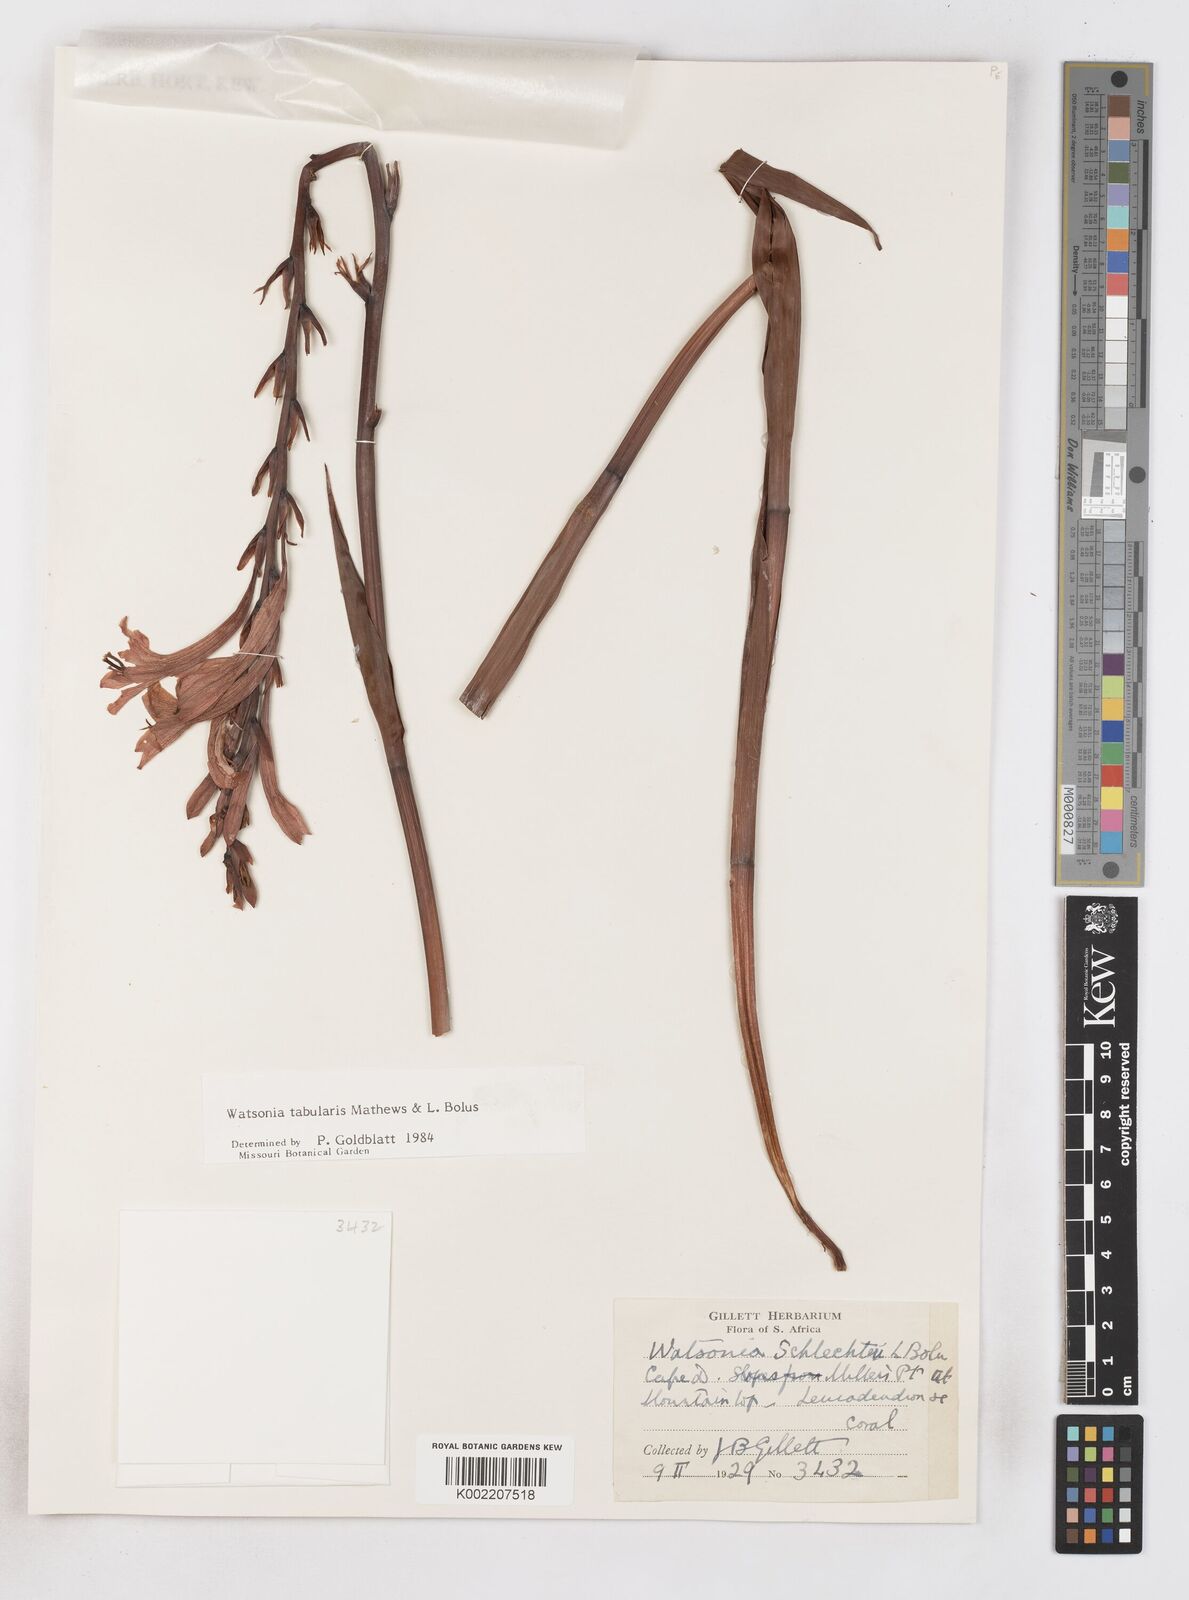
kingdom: Plantae
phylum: Tracheophyta
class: Liliopsida
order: Asparagales
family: Iridaceae
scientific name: Iridaceae
